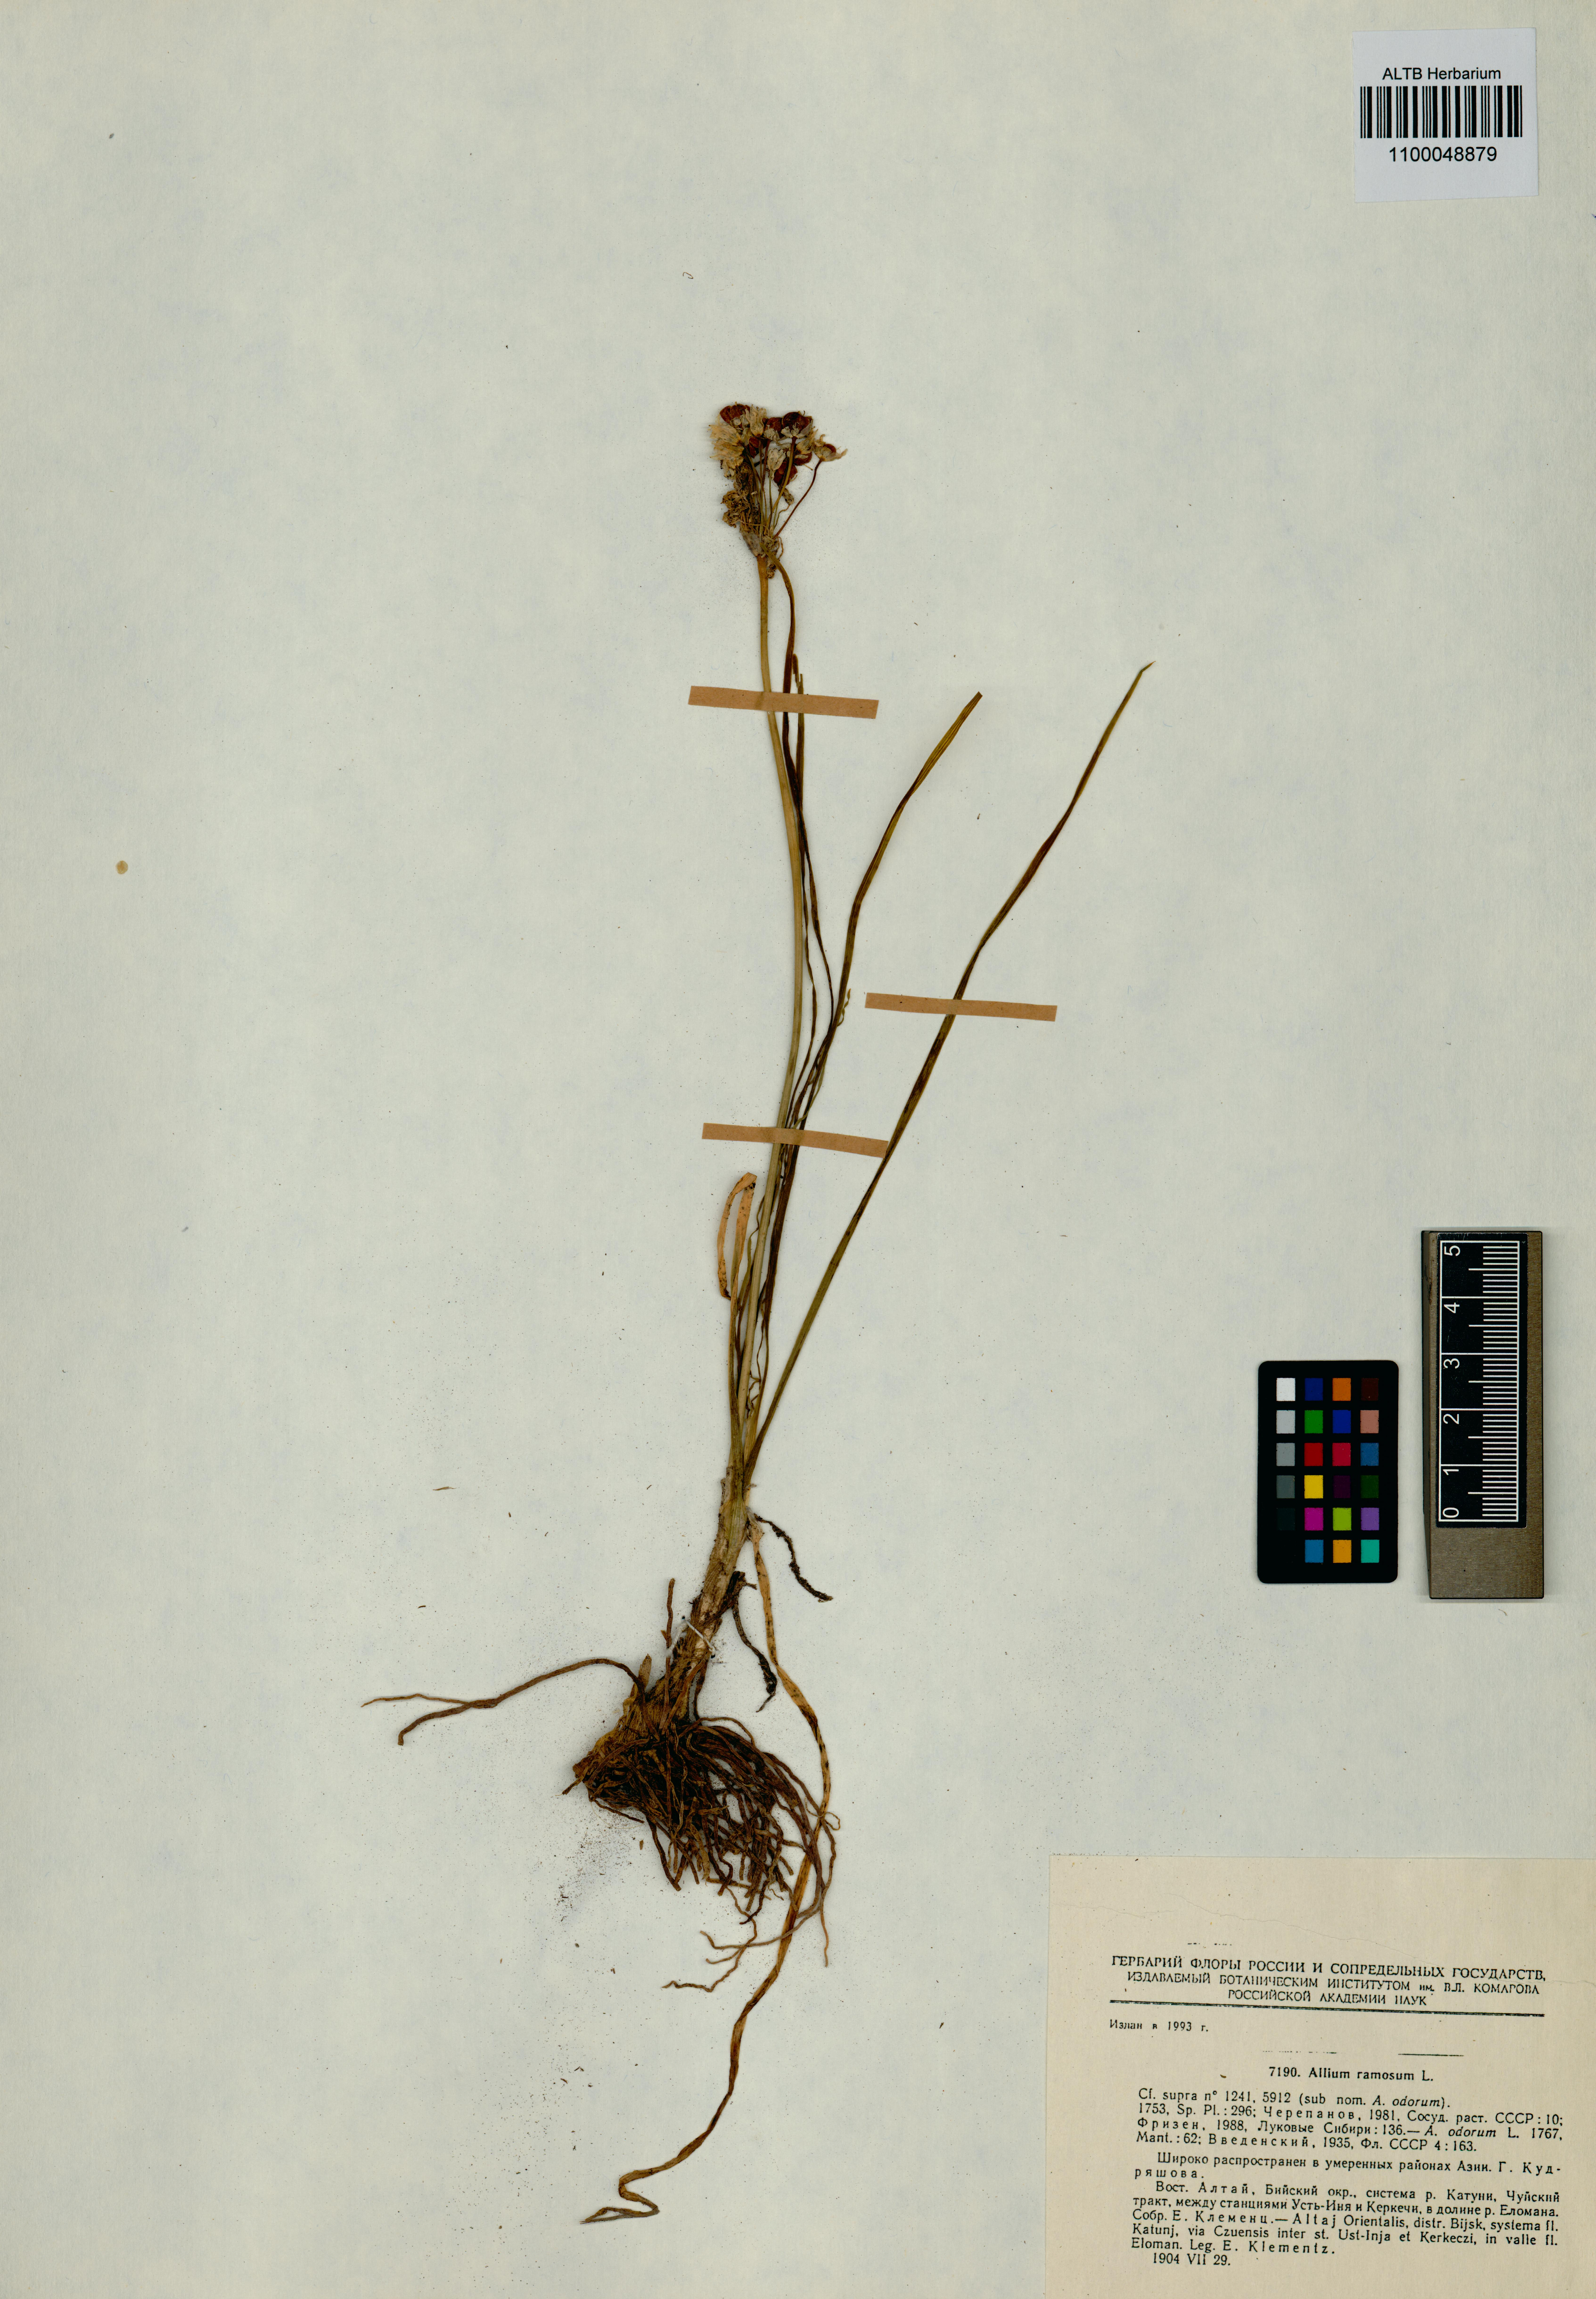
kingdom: Plantae
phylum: Tracheophyta
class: Liliopsida
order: Asparagales
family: Amaryllidaceae
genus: Allium
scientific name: Allium ramosum
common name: Fragrant garlic
